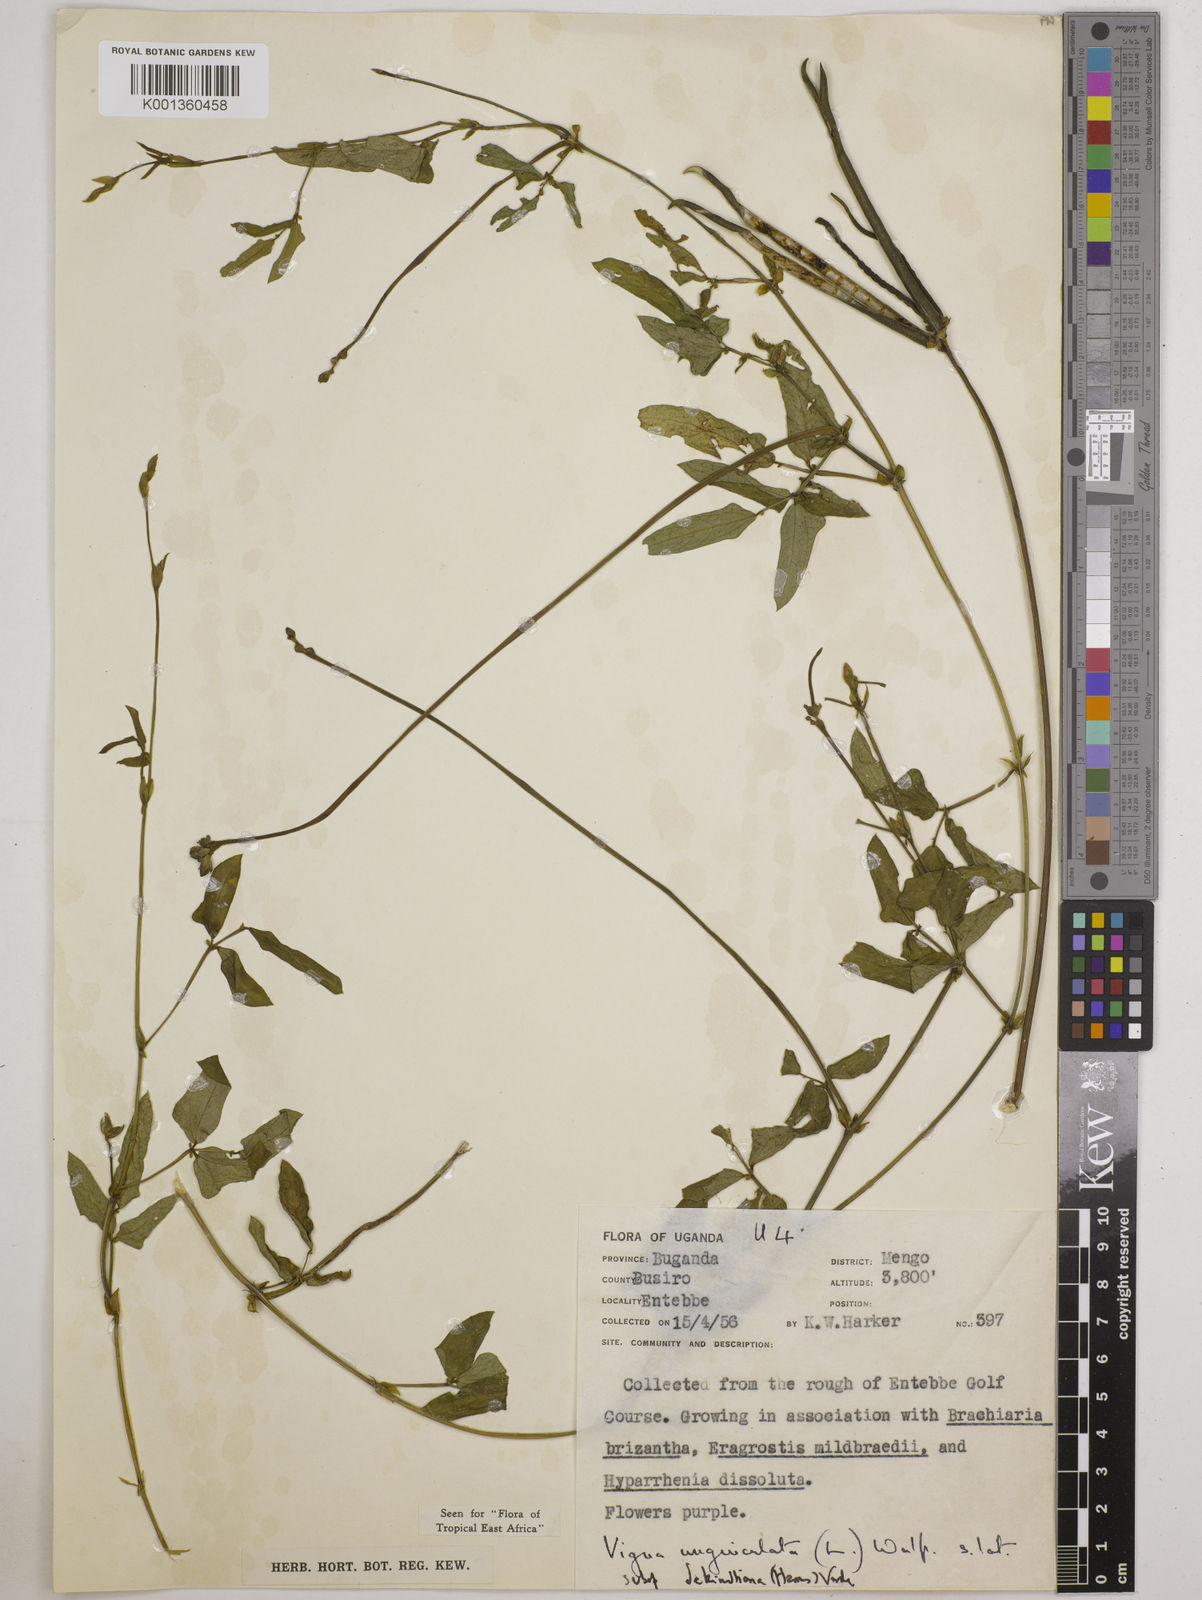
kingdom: Plantae
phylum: Tracheophyta
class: Magnoliopsida
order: Fabales
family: Fabaceae
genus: Vigna
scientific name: Vigna unguiculata
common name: Cowpea
